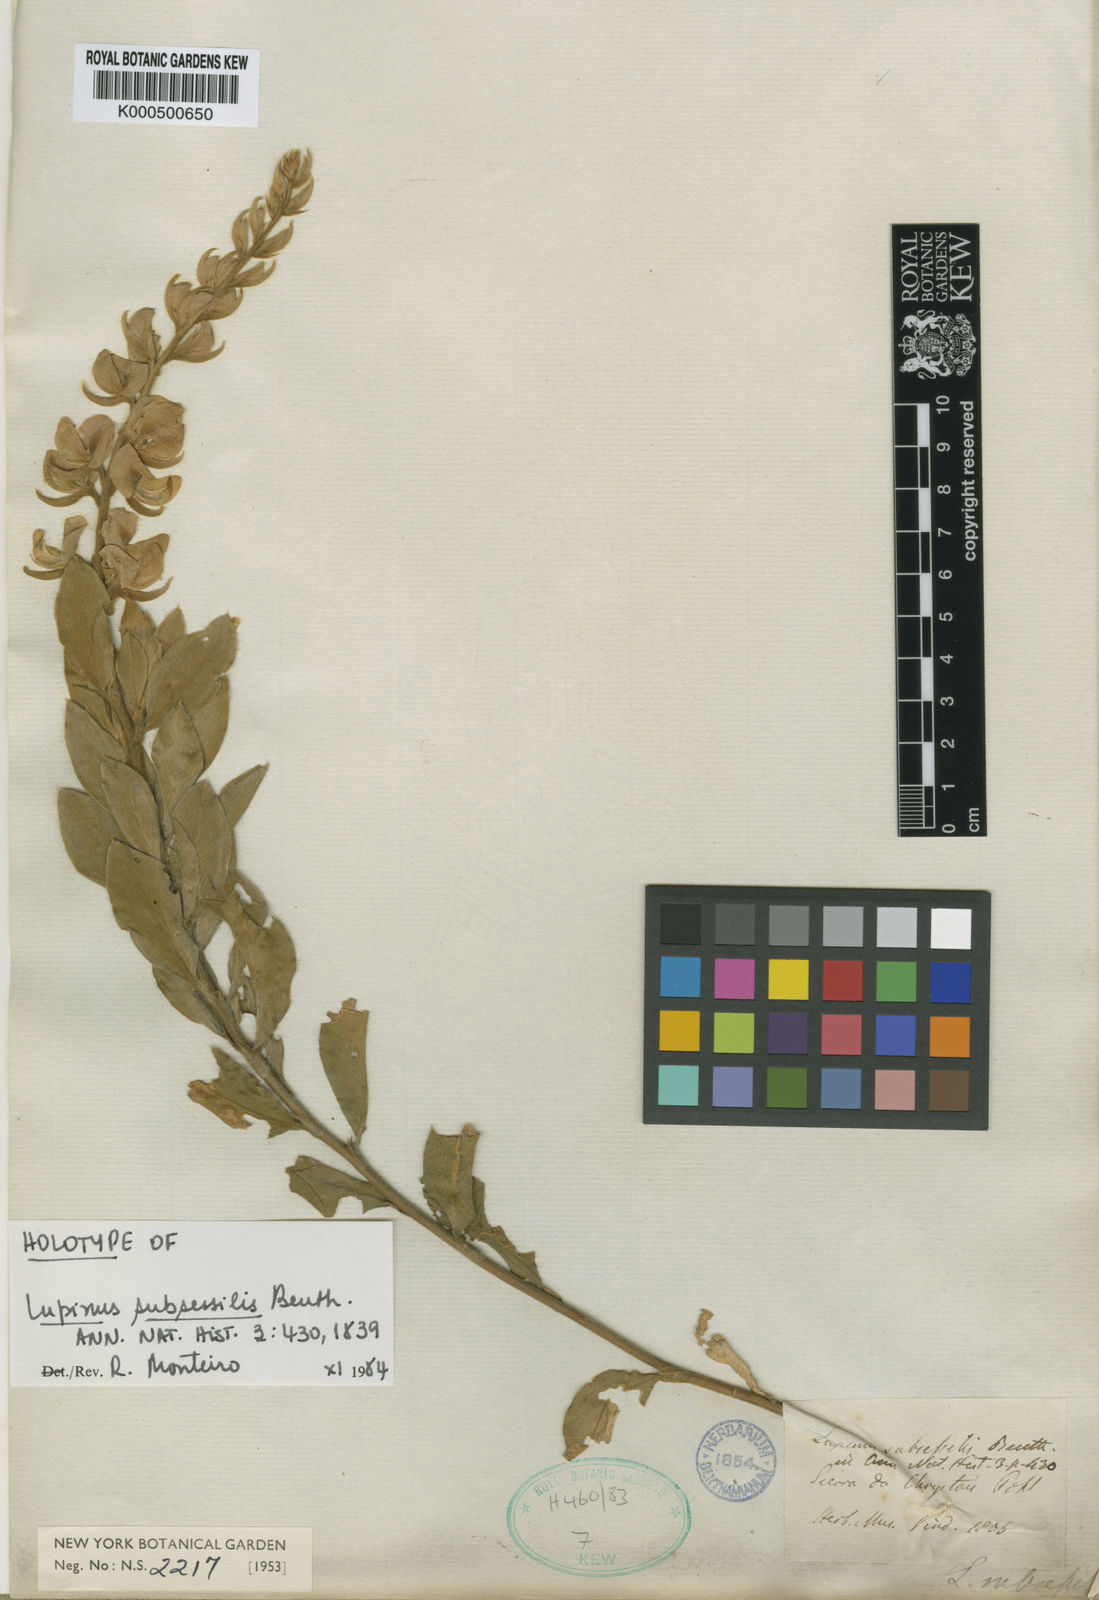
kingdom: Plantae
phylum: Tracheophyta
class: Magnoliopsida
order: Fabales
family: Fabaceae
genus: Lupinus
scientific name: Lupinus subsessilis
